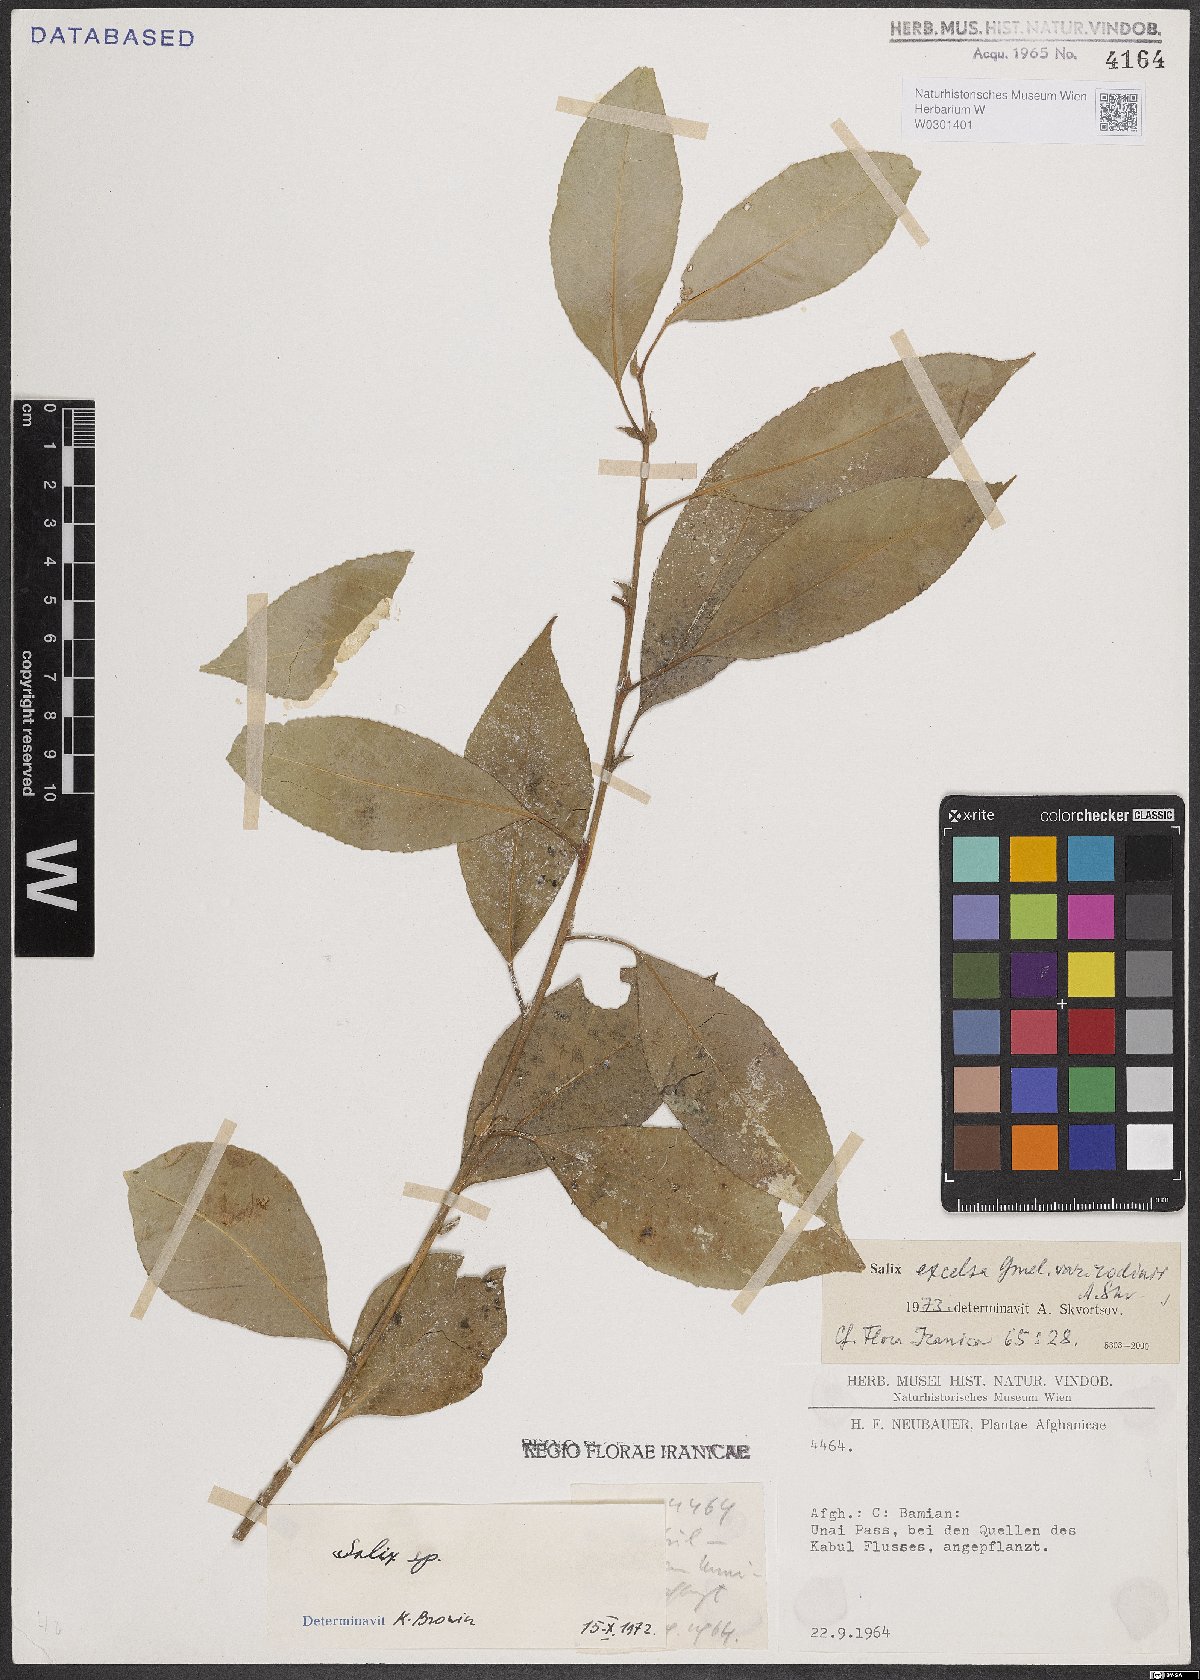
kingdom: Plantae
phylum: Tracheophyta
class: Magnoliopsida
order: Malpighiales
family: Salicaceae
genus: Salix
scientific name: Salix excelsa
